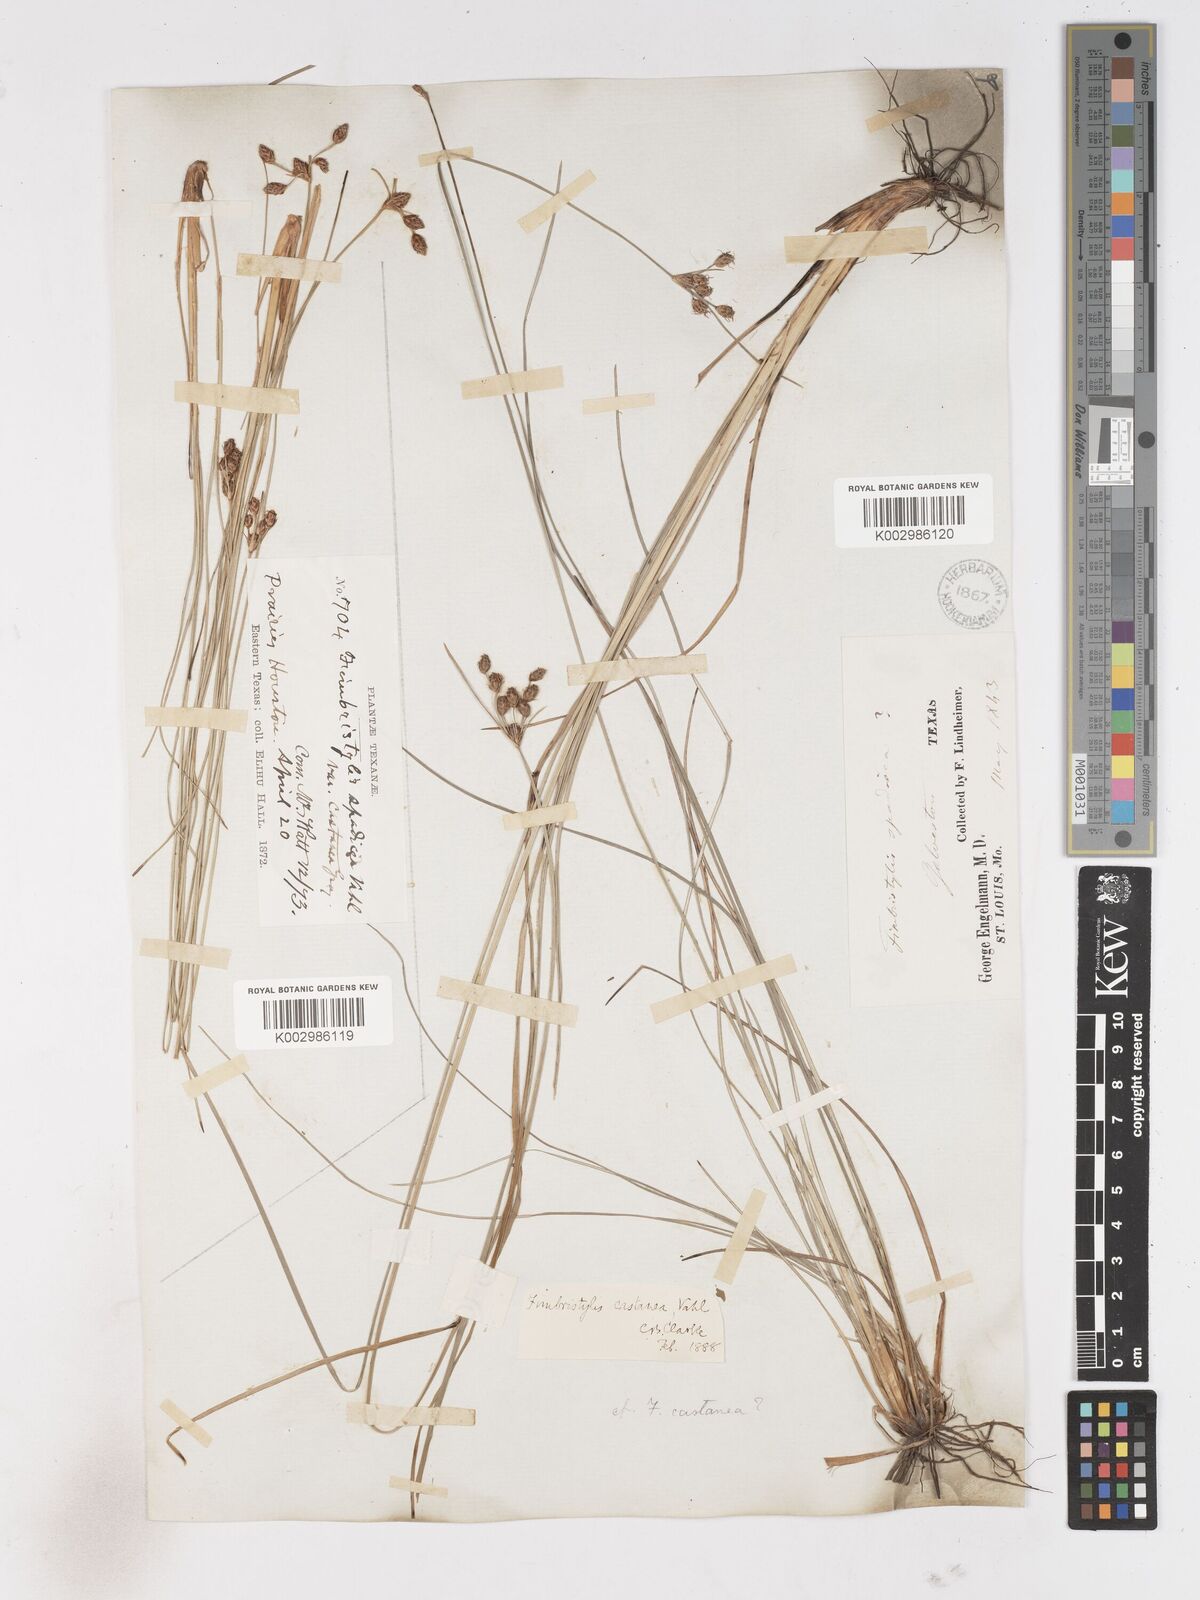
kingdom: Plantae
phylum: Tracheophyta
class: Liliopsida
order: Poales
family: Cyperaceae
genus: Fimbristylis
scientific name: Fimbristylis spadicea
